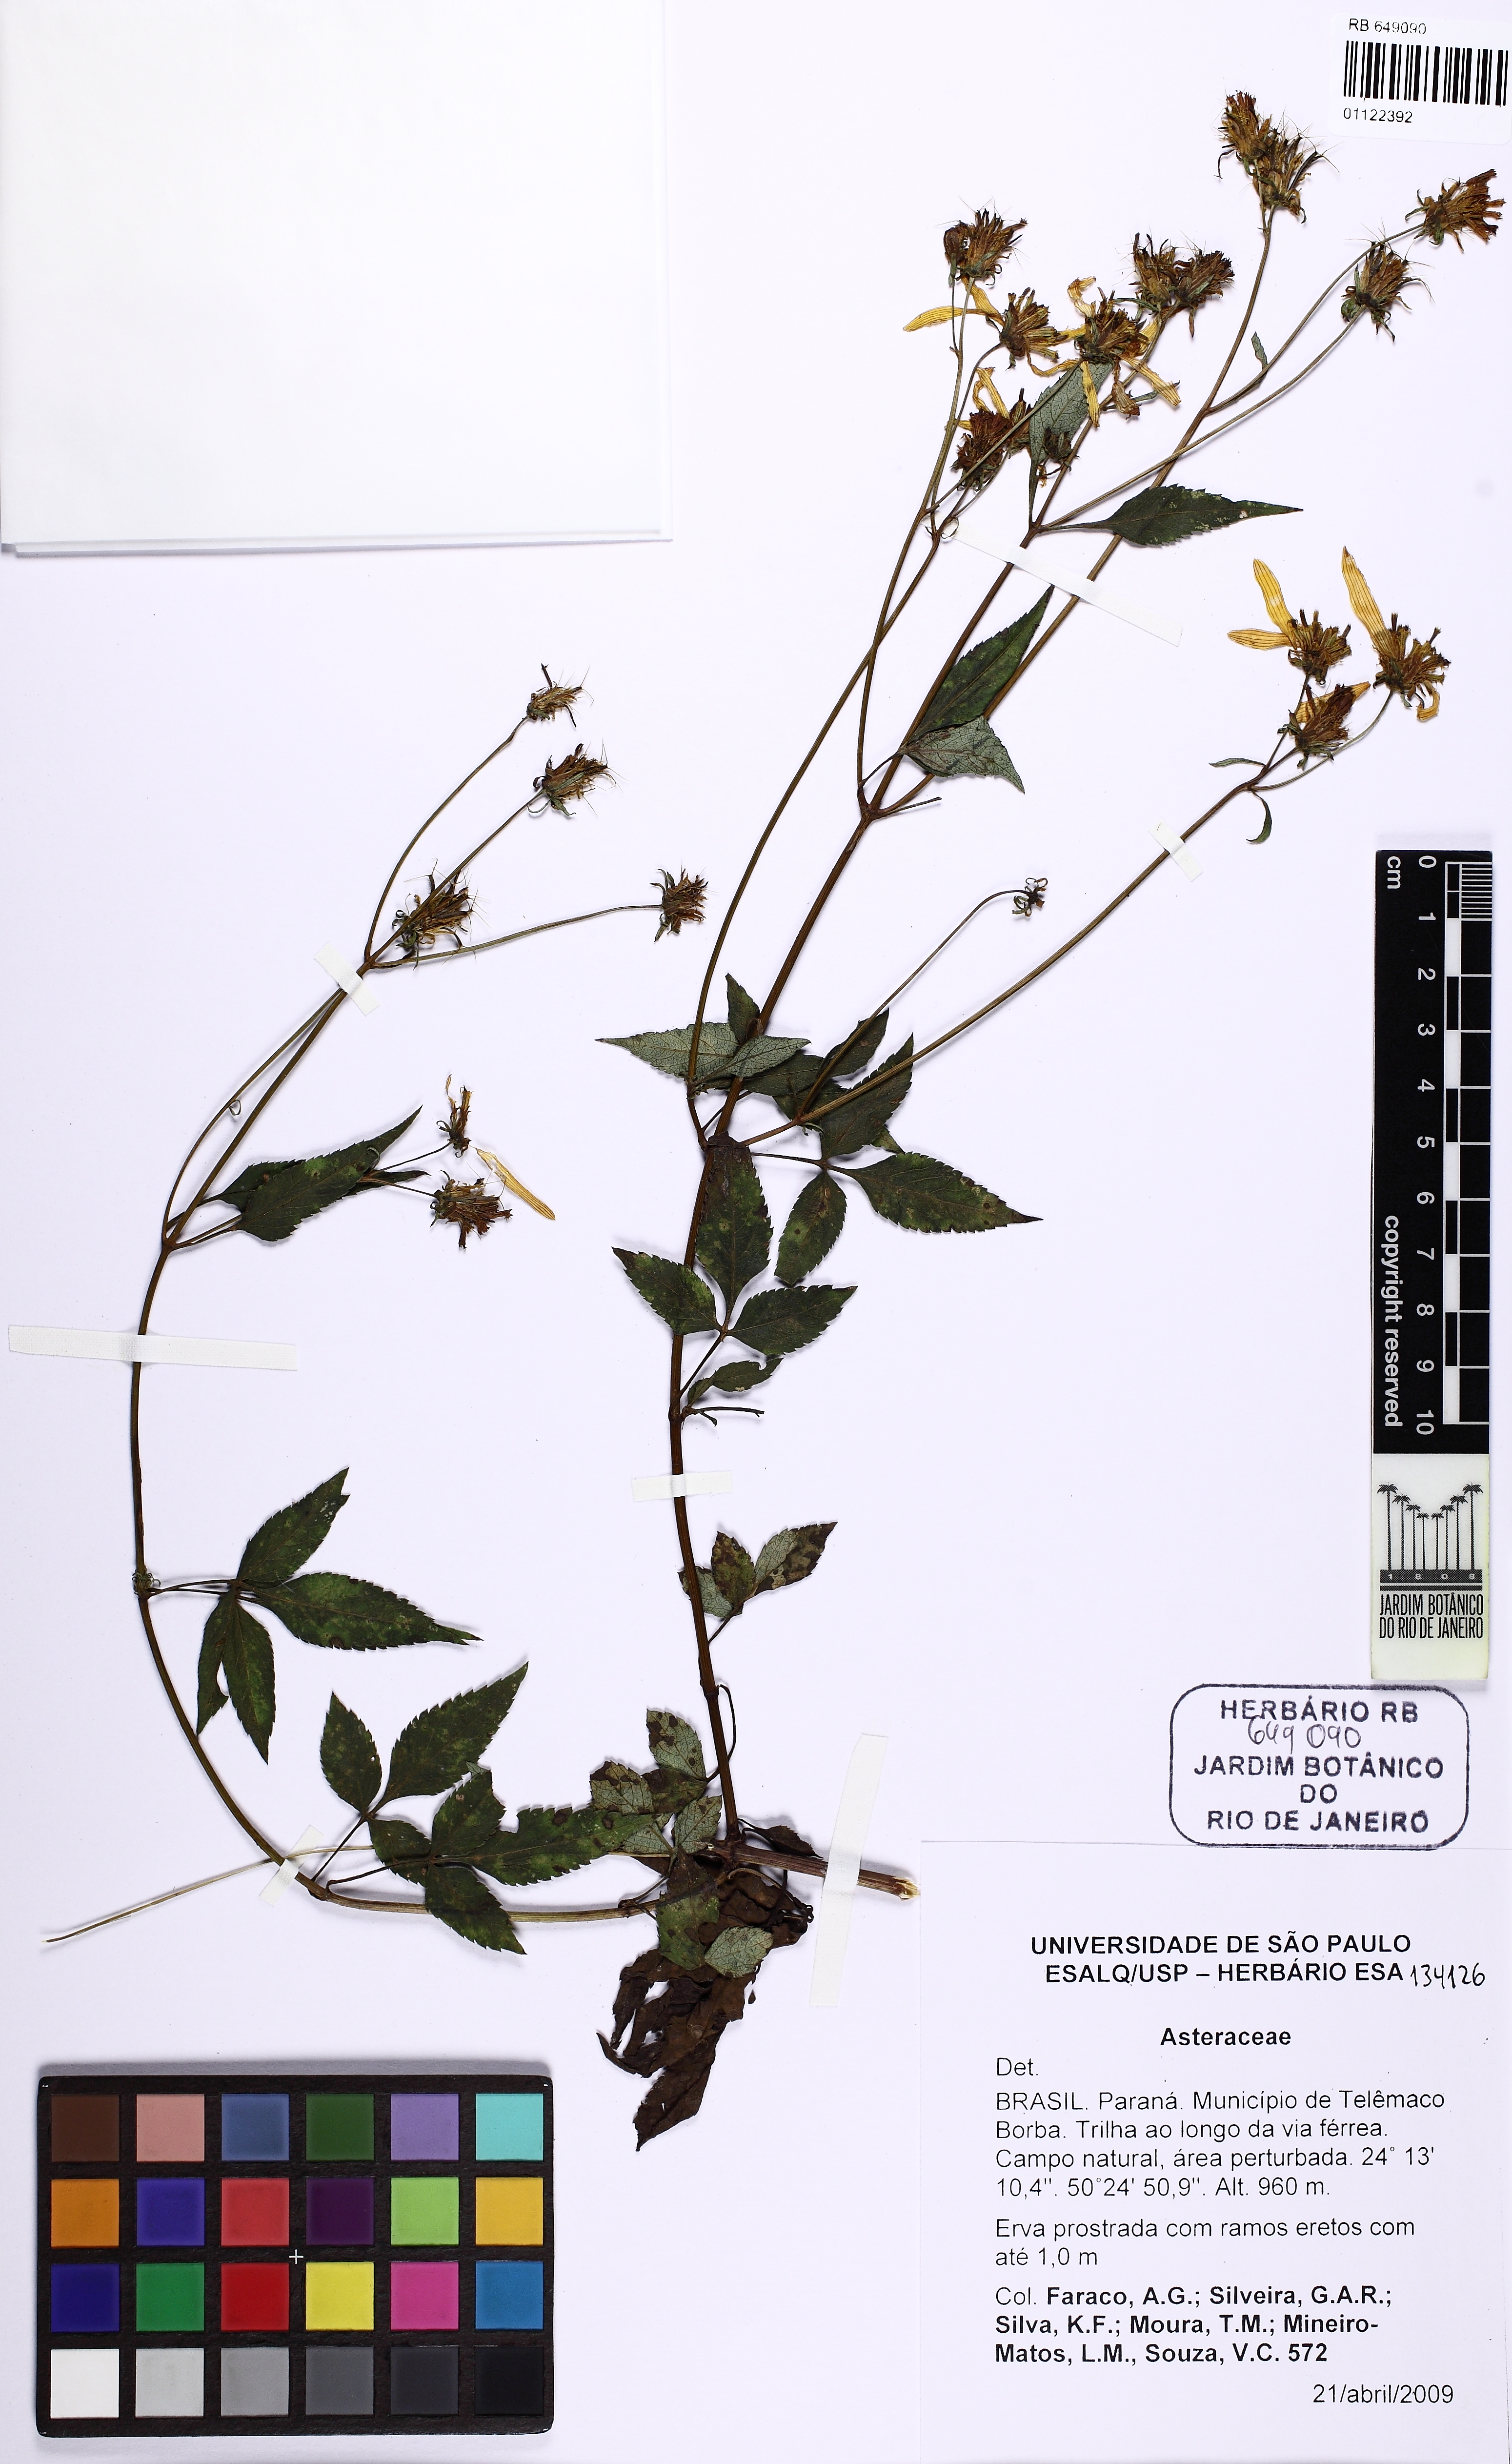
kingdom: Plantae
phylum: Tracheophyta
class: Magnoliopsida
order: Asterales
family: Asteraceae
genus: Bidens
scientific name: Bidens bipinnata
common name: Spanish-needles
